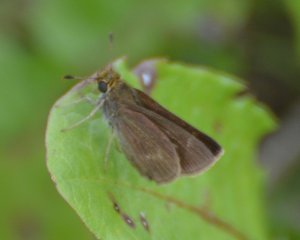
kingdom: Animalia
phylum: Arthropoda
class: Insecta
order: Lepidoptera
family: Hesperiidae
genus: Polites
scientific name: Polites themistocles
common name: Tawny-edged Skipper
